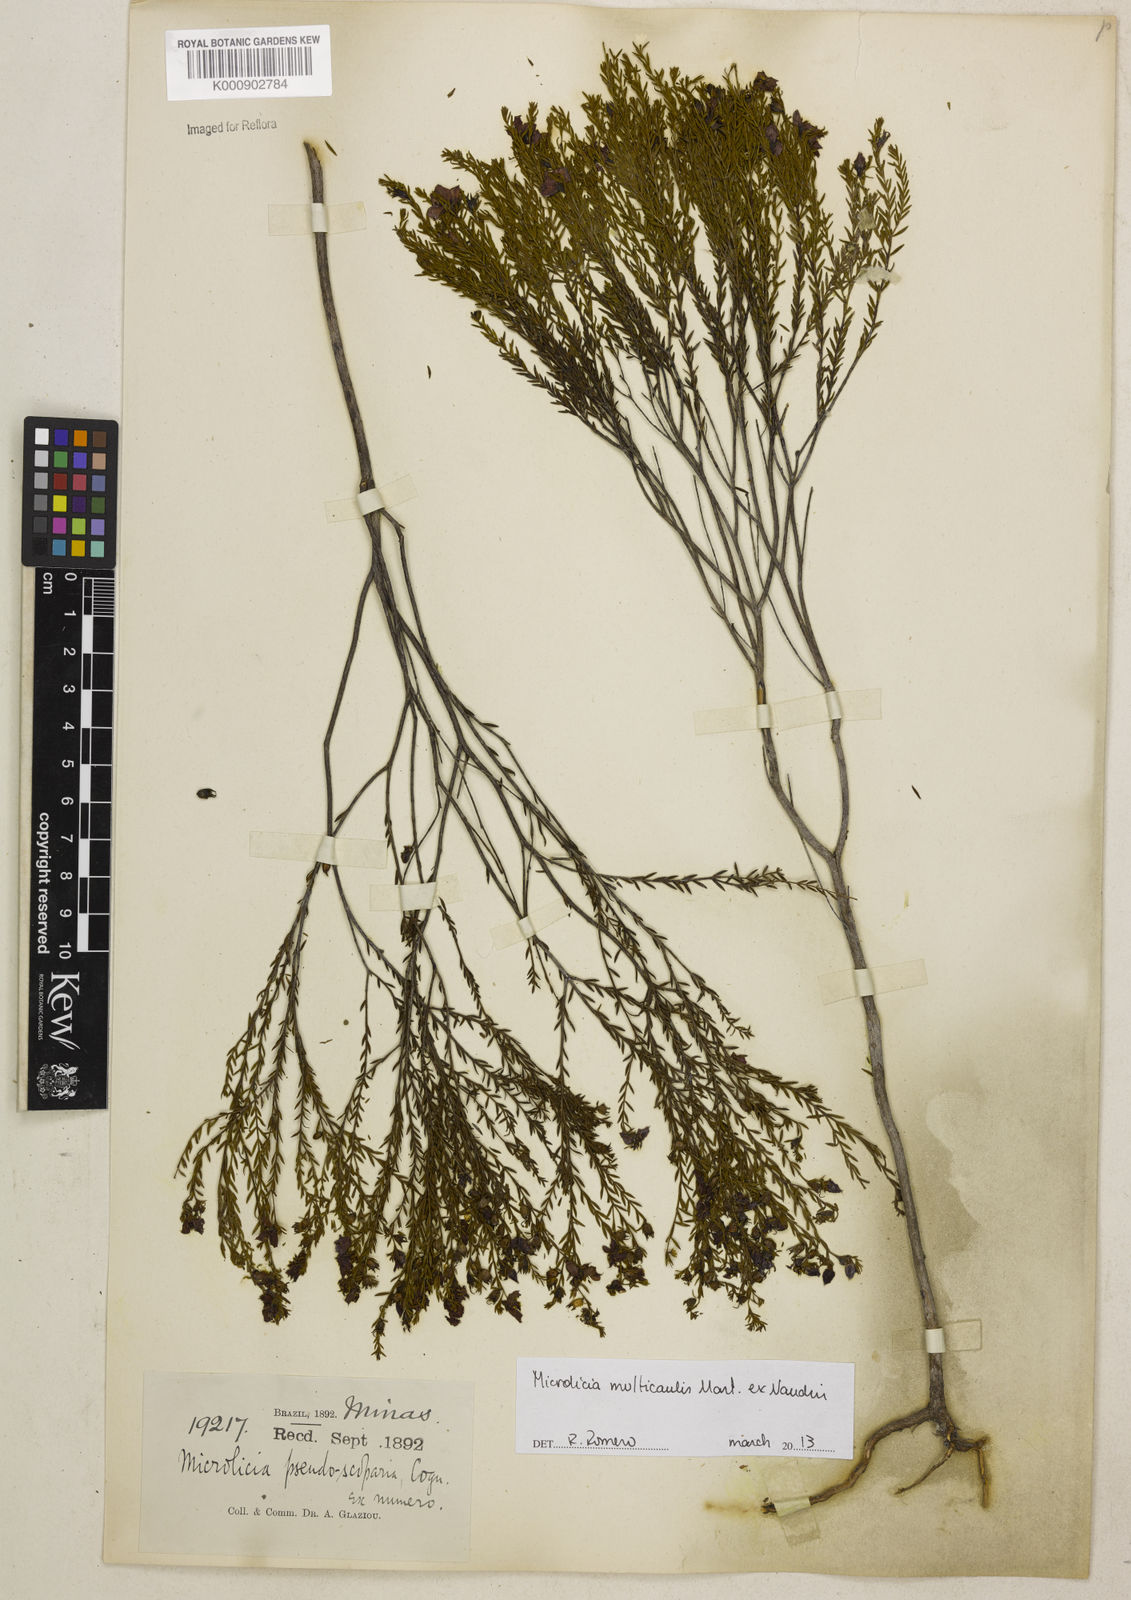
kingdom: Plantae
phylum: Tracheophyta
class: Magnoliopsida
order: Myrtales
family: Melastomataceae
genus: Microlicia
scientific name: Microlicia multicaulis
